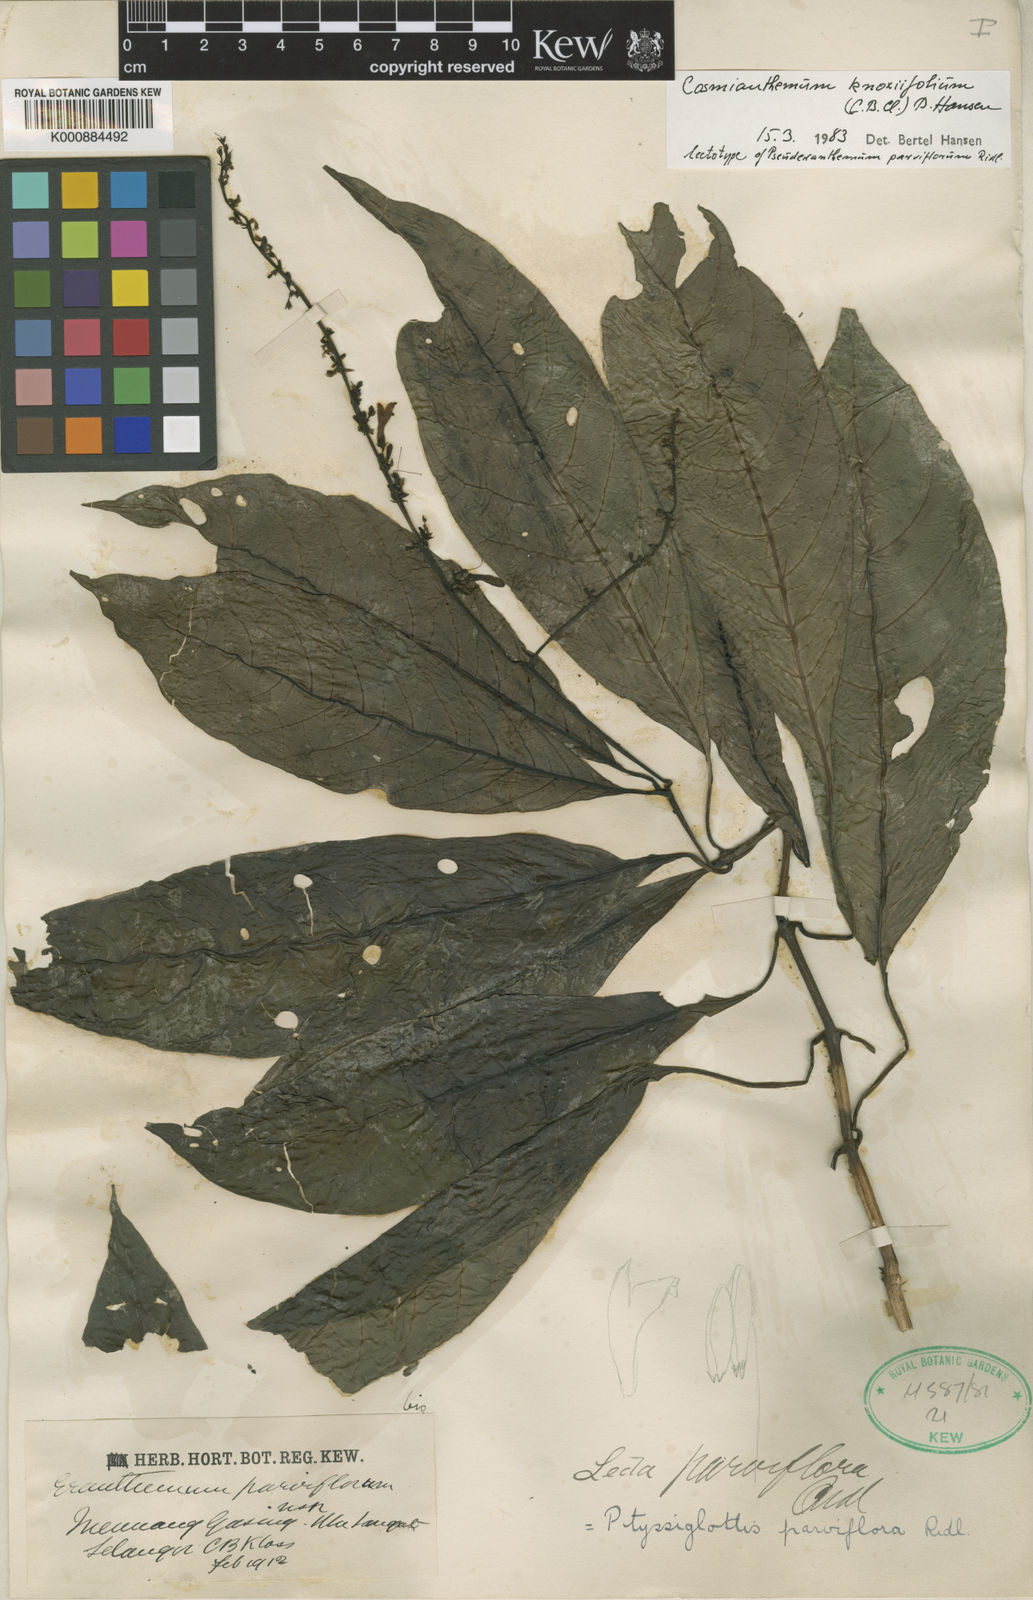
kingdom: Plantae
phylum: Tracheophyta
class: Magnoliopsida
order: Lamiales
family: Acanthaceae
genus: Cosmianthemum
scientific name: Cosmianthemum knoxiifolium
